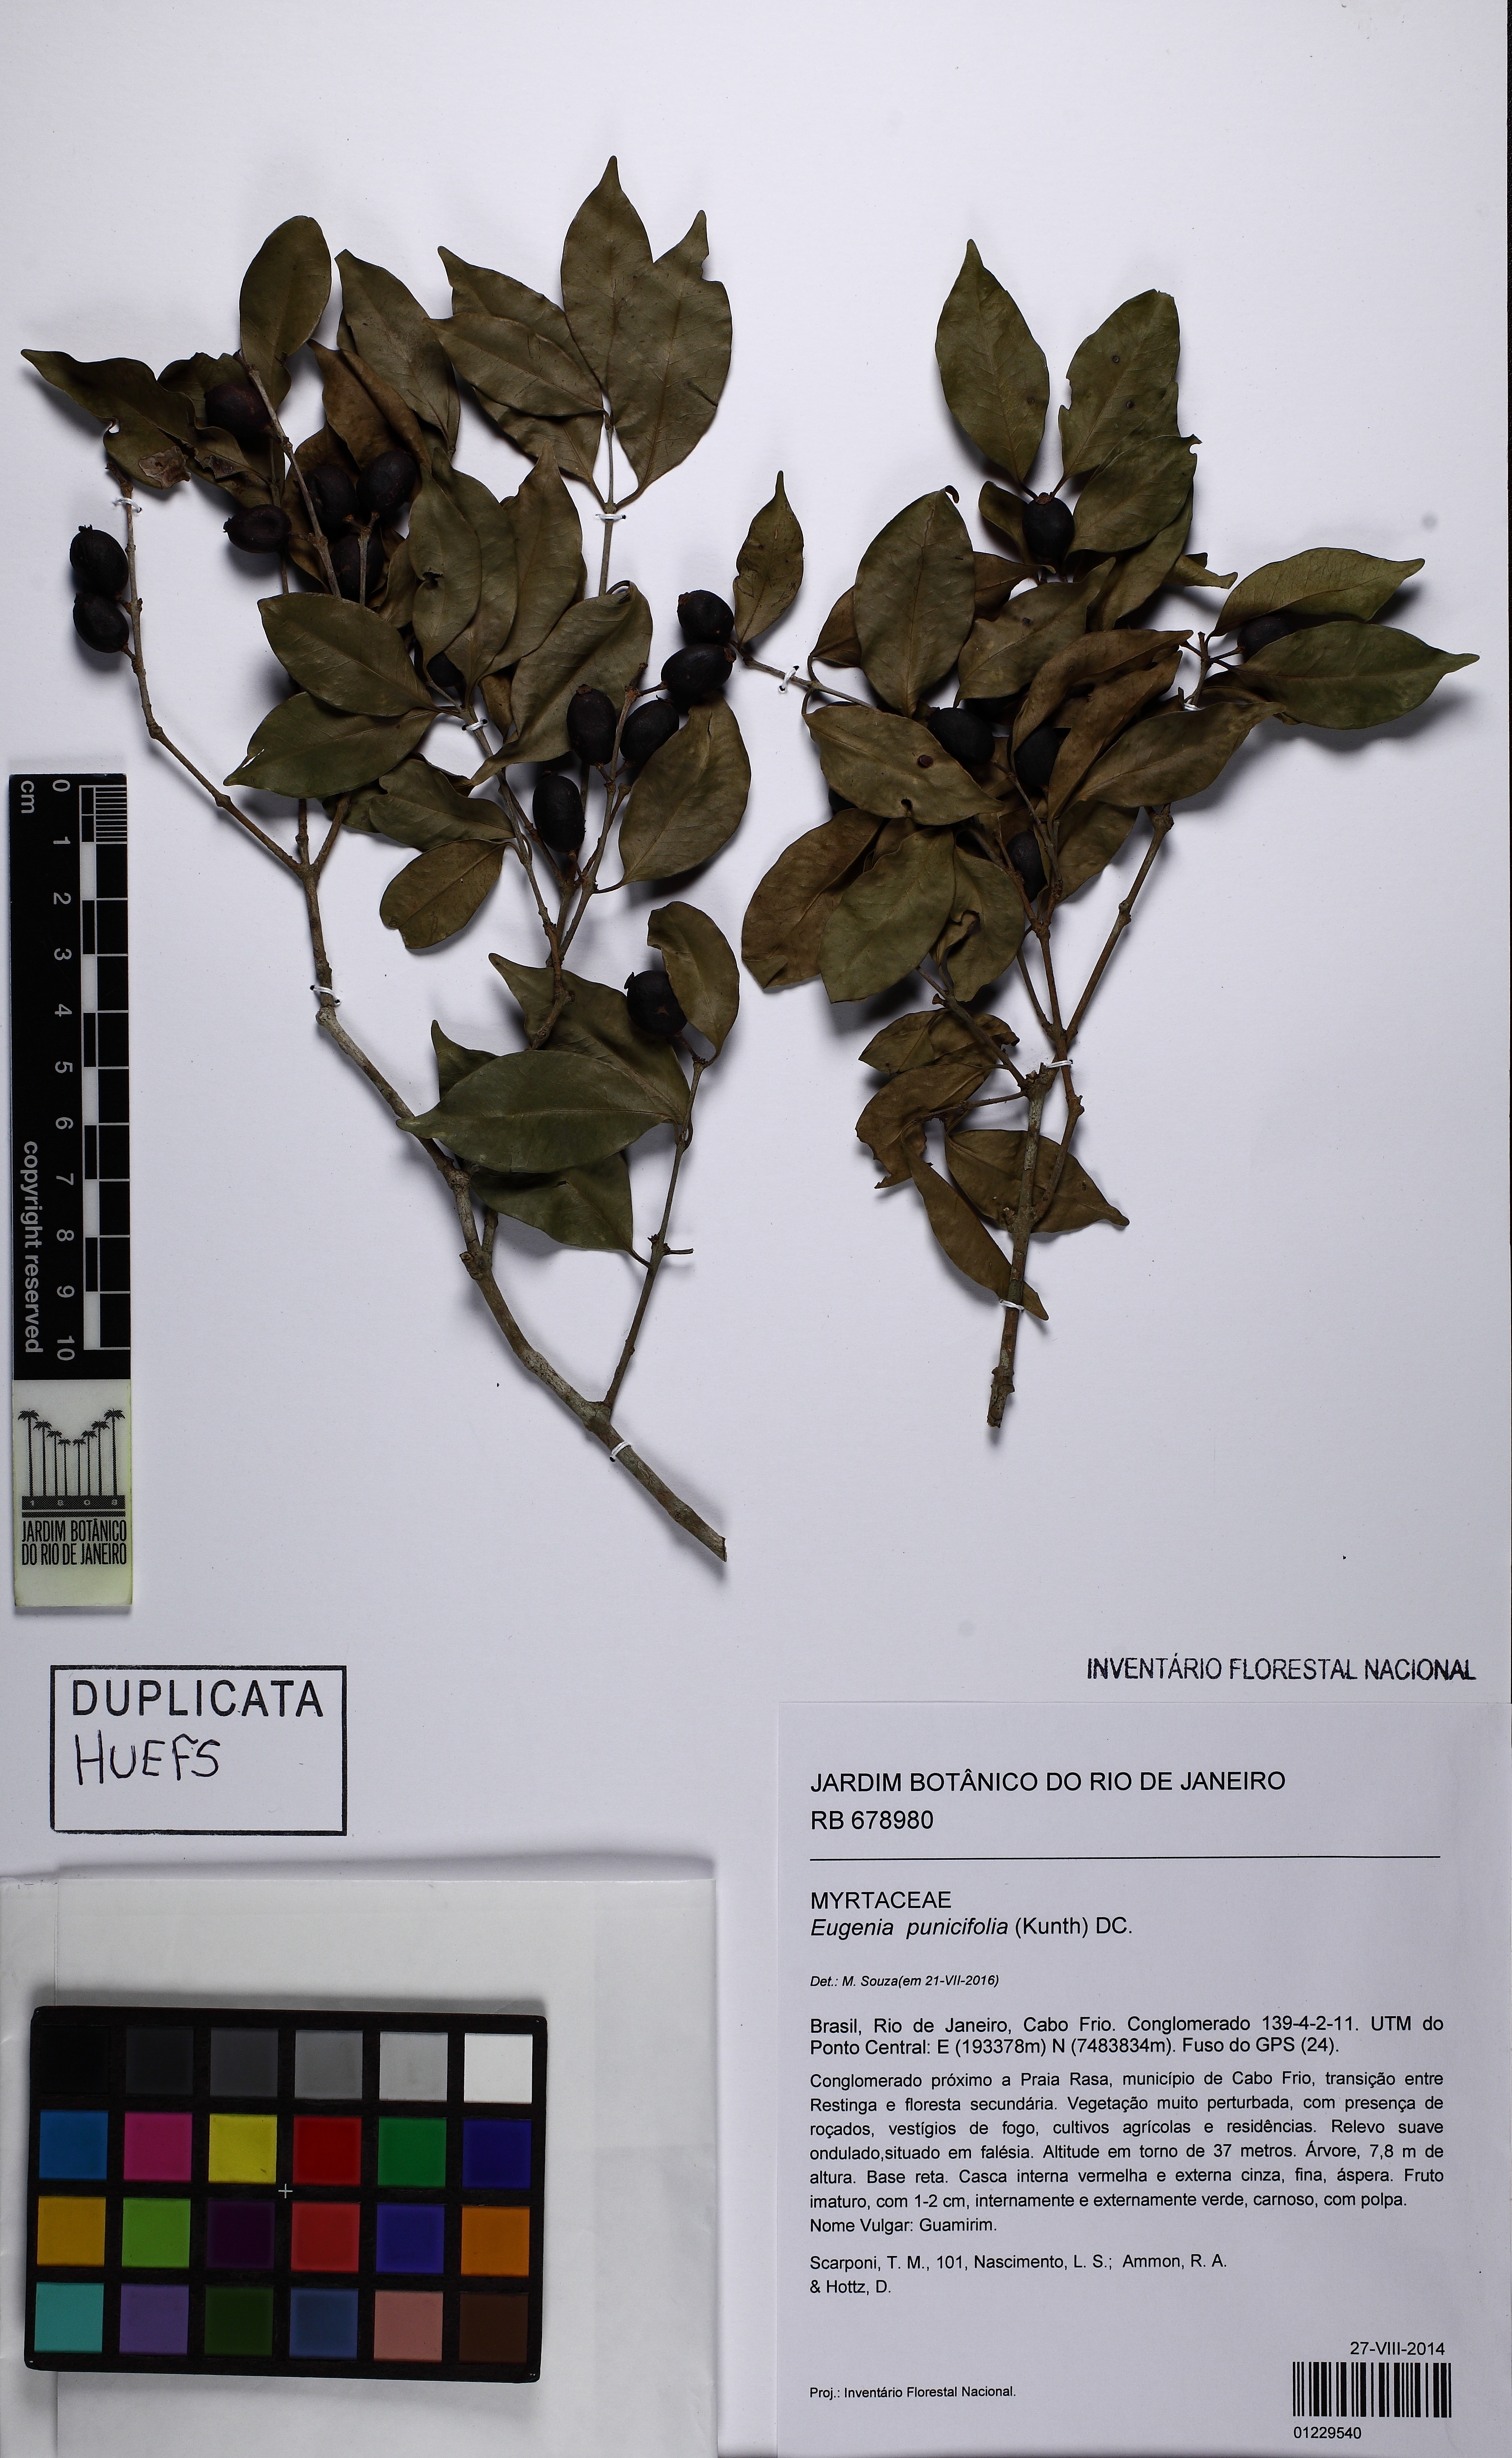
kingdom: Plantae
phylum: Tracheophyta
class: Magnoliopsida
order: Myrtales
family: Myrtaceae
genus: Eugenia
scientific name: Eugenia punicifolia
